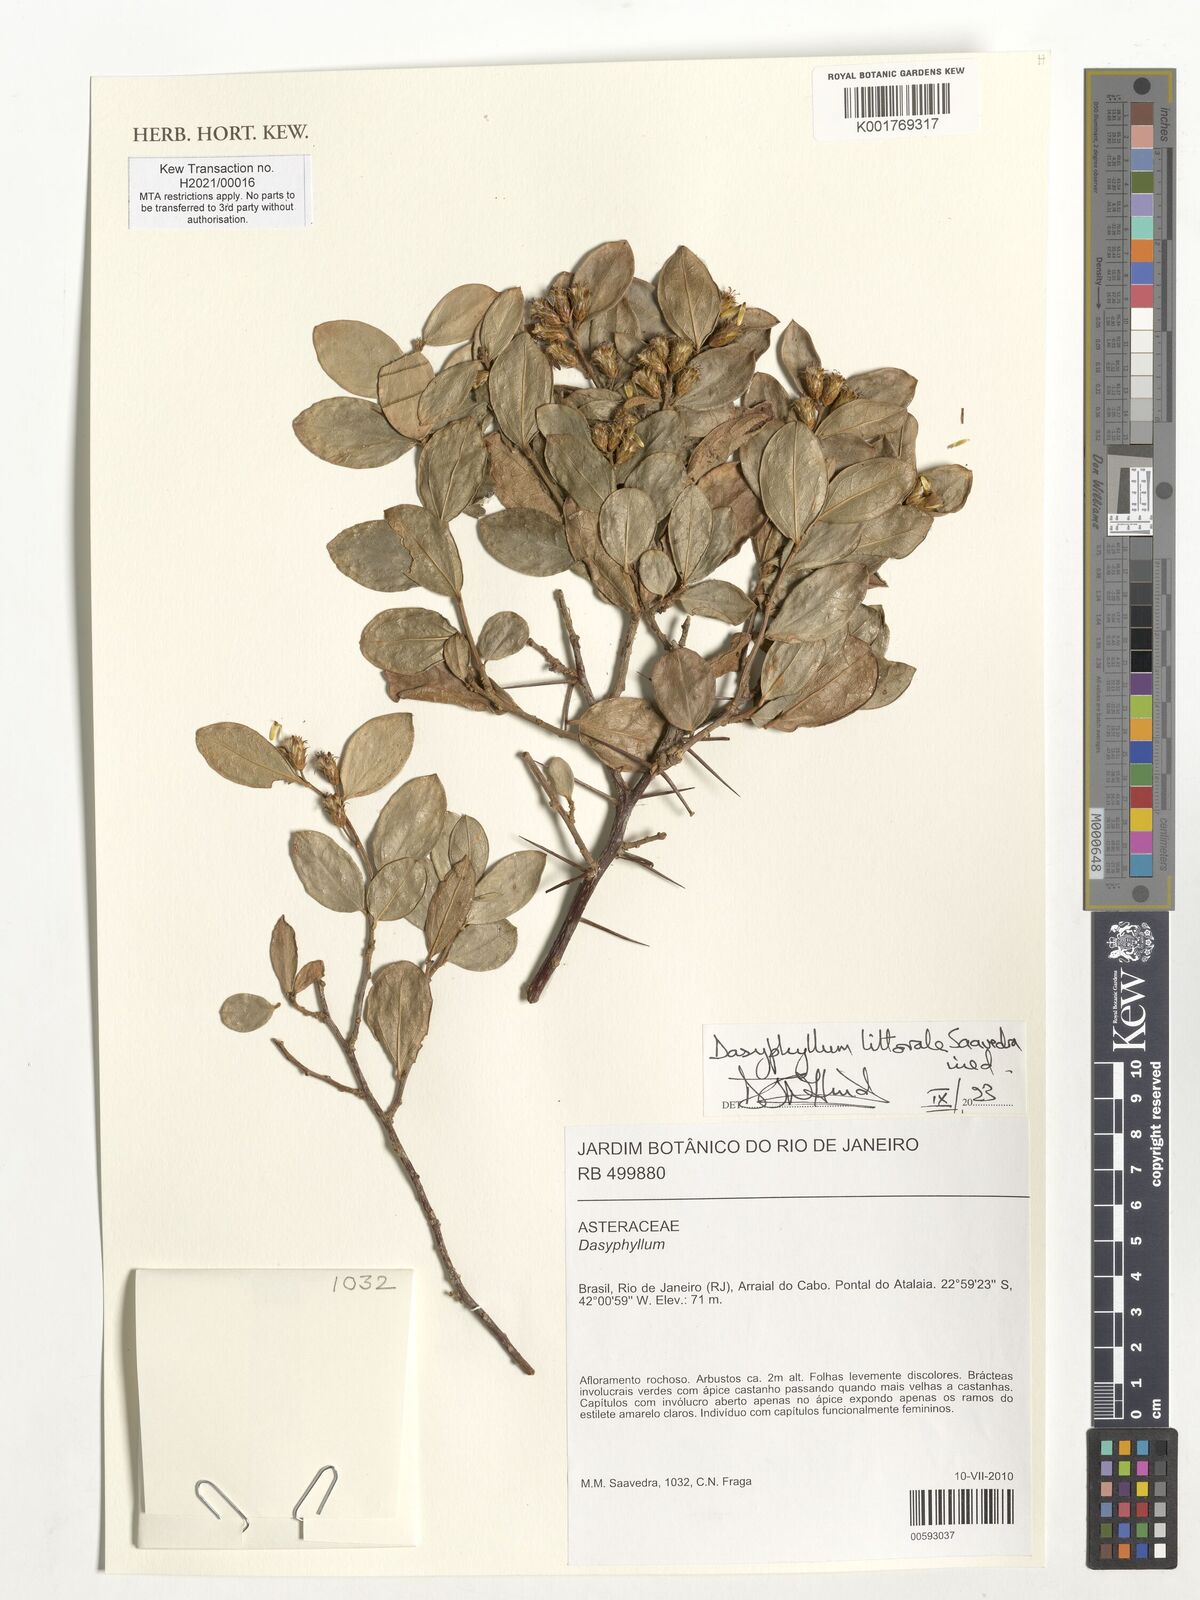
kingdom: Plantae
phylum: Tracheophyta
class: Magnoliopsida
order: Asterales
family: Asteraceae
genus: Dasyphyllum
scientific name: Dasyphyllum
